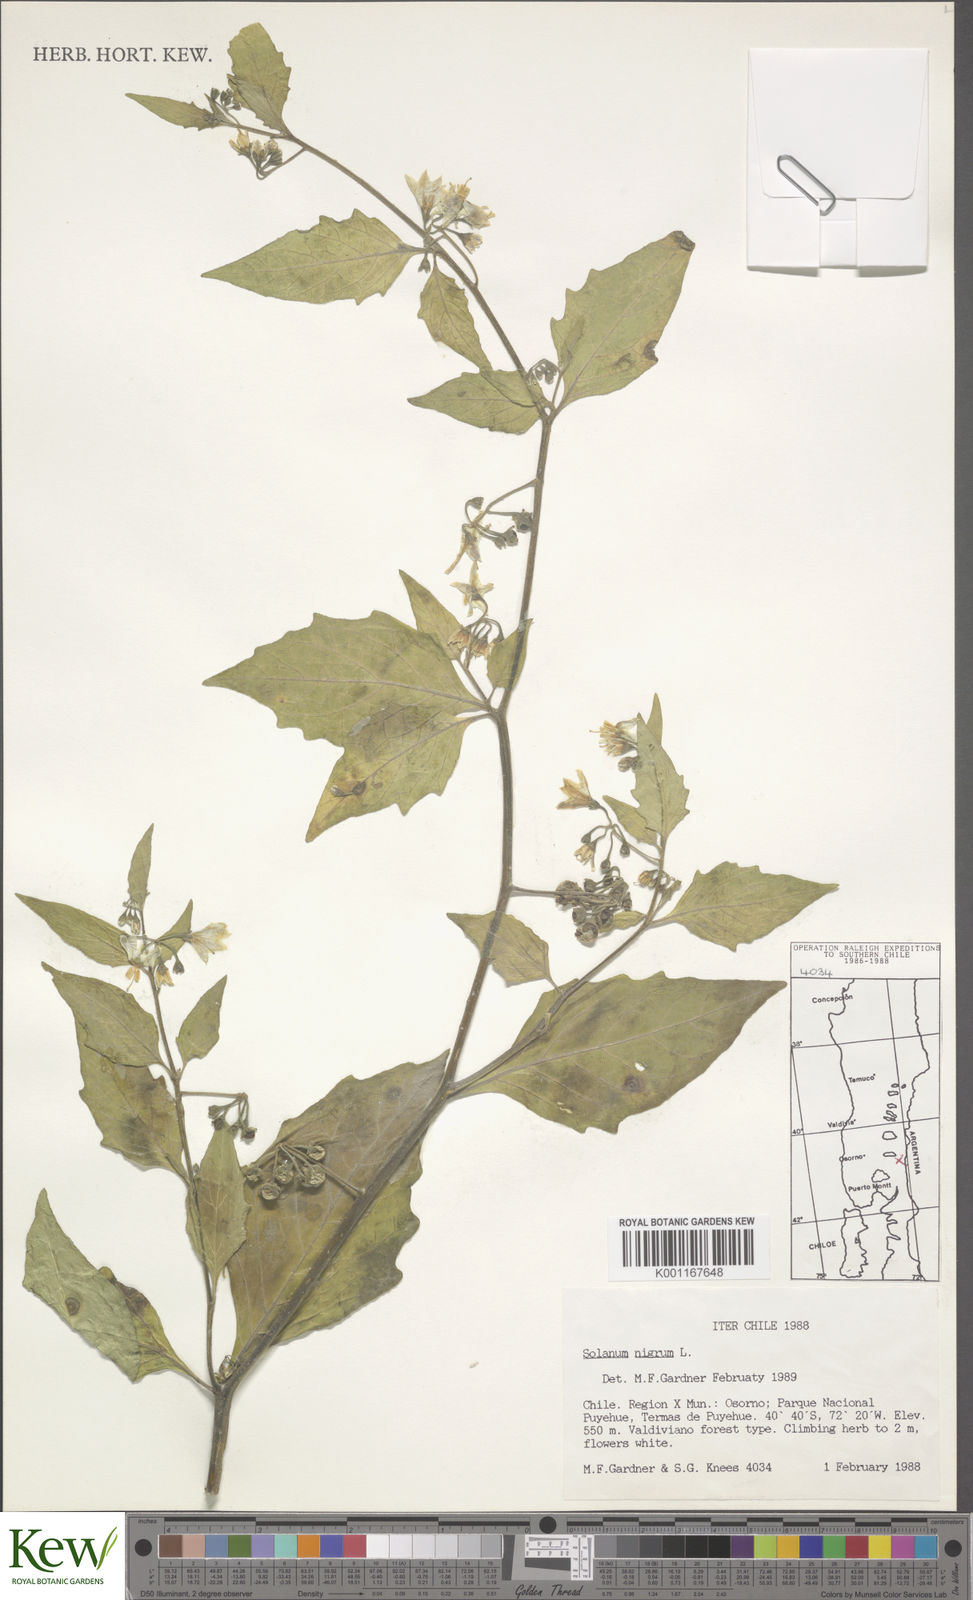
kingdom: Plantae
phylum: Tracheophyta
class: Magnoliopsida
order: Solanales
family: Solanaceae
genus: Solanum
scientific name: Solanum furcatum
